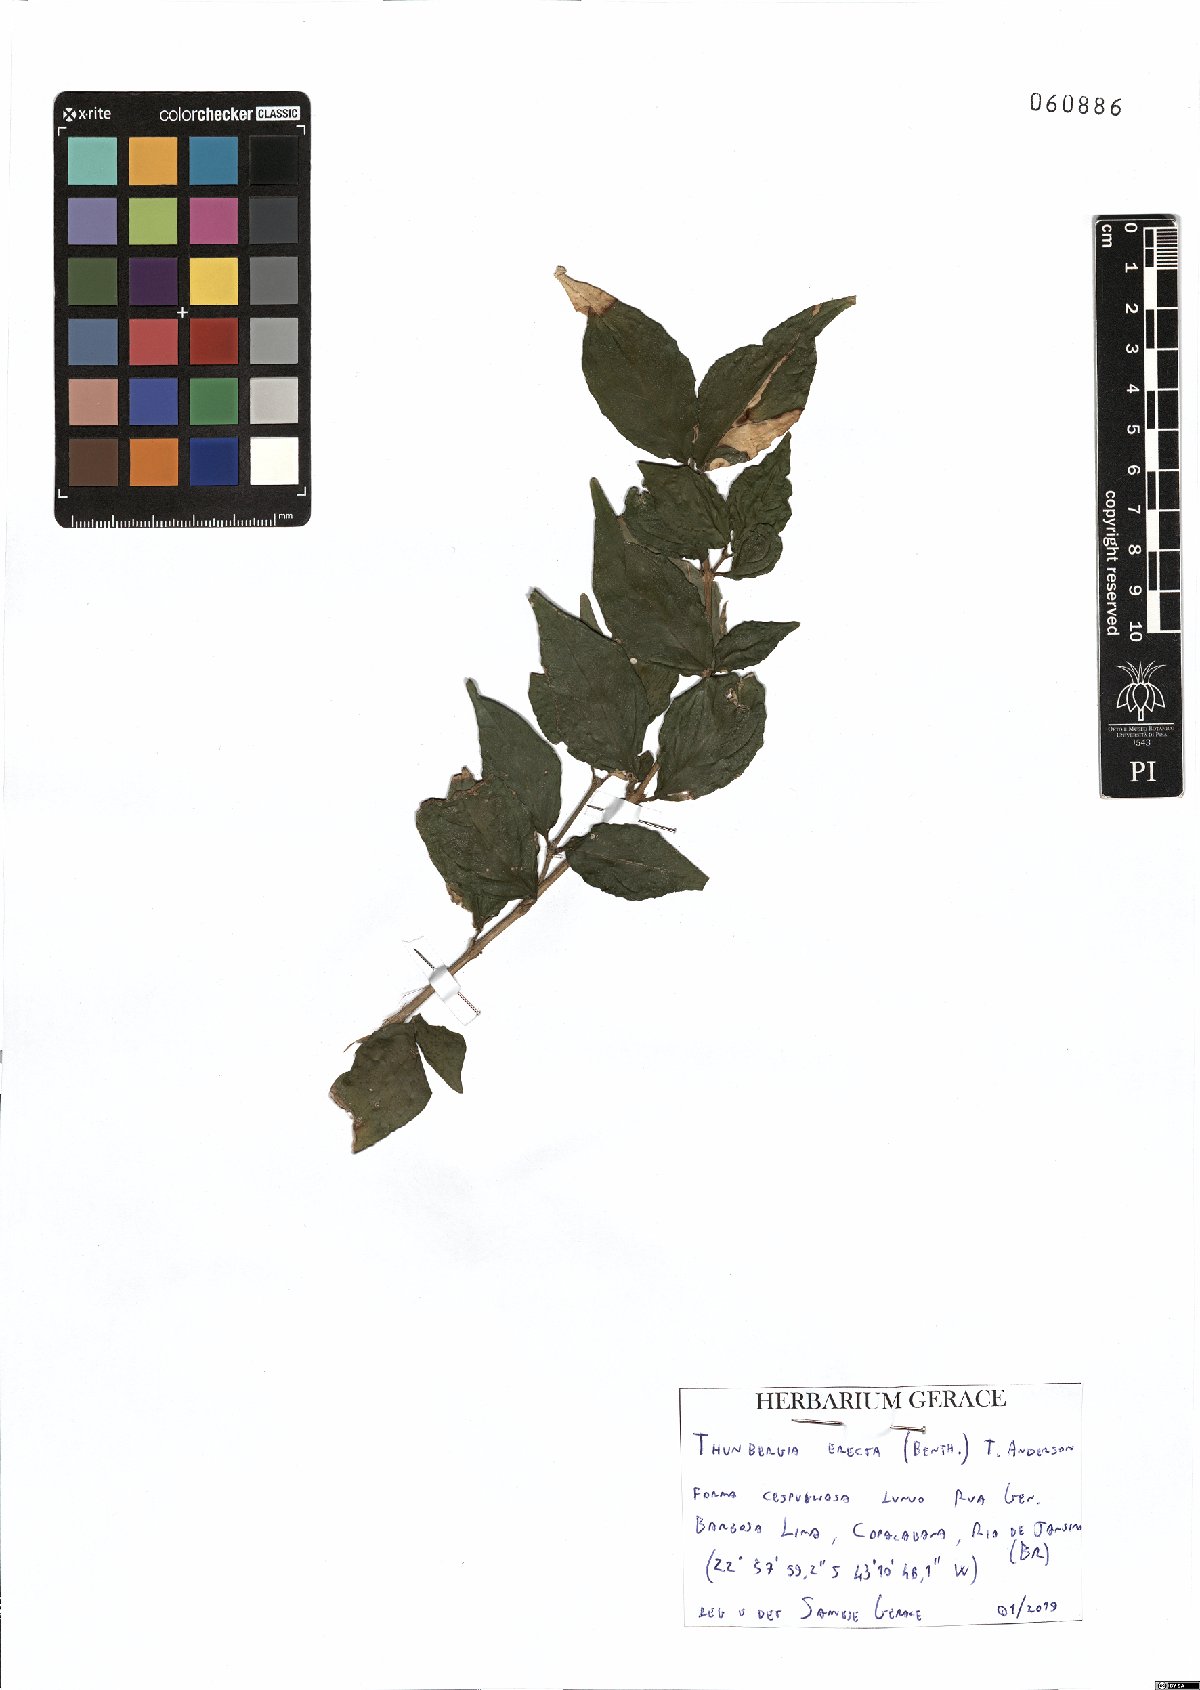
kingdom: Plantae
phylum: Tracheophyta
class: Magnoliopsida
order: Lamiales
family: Acanthaceae
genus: Thunbergia
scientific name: Thunbergia erecta
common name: Bush clockvine
